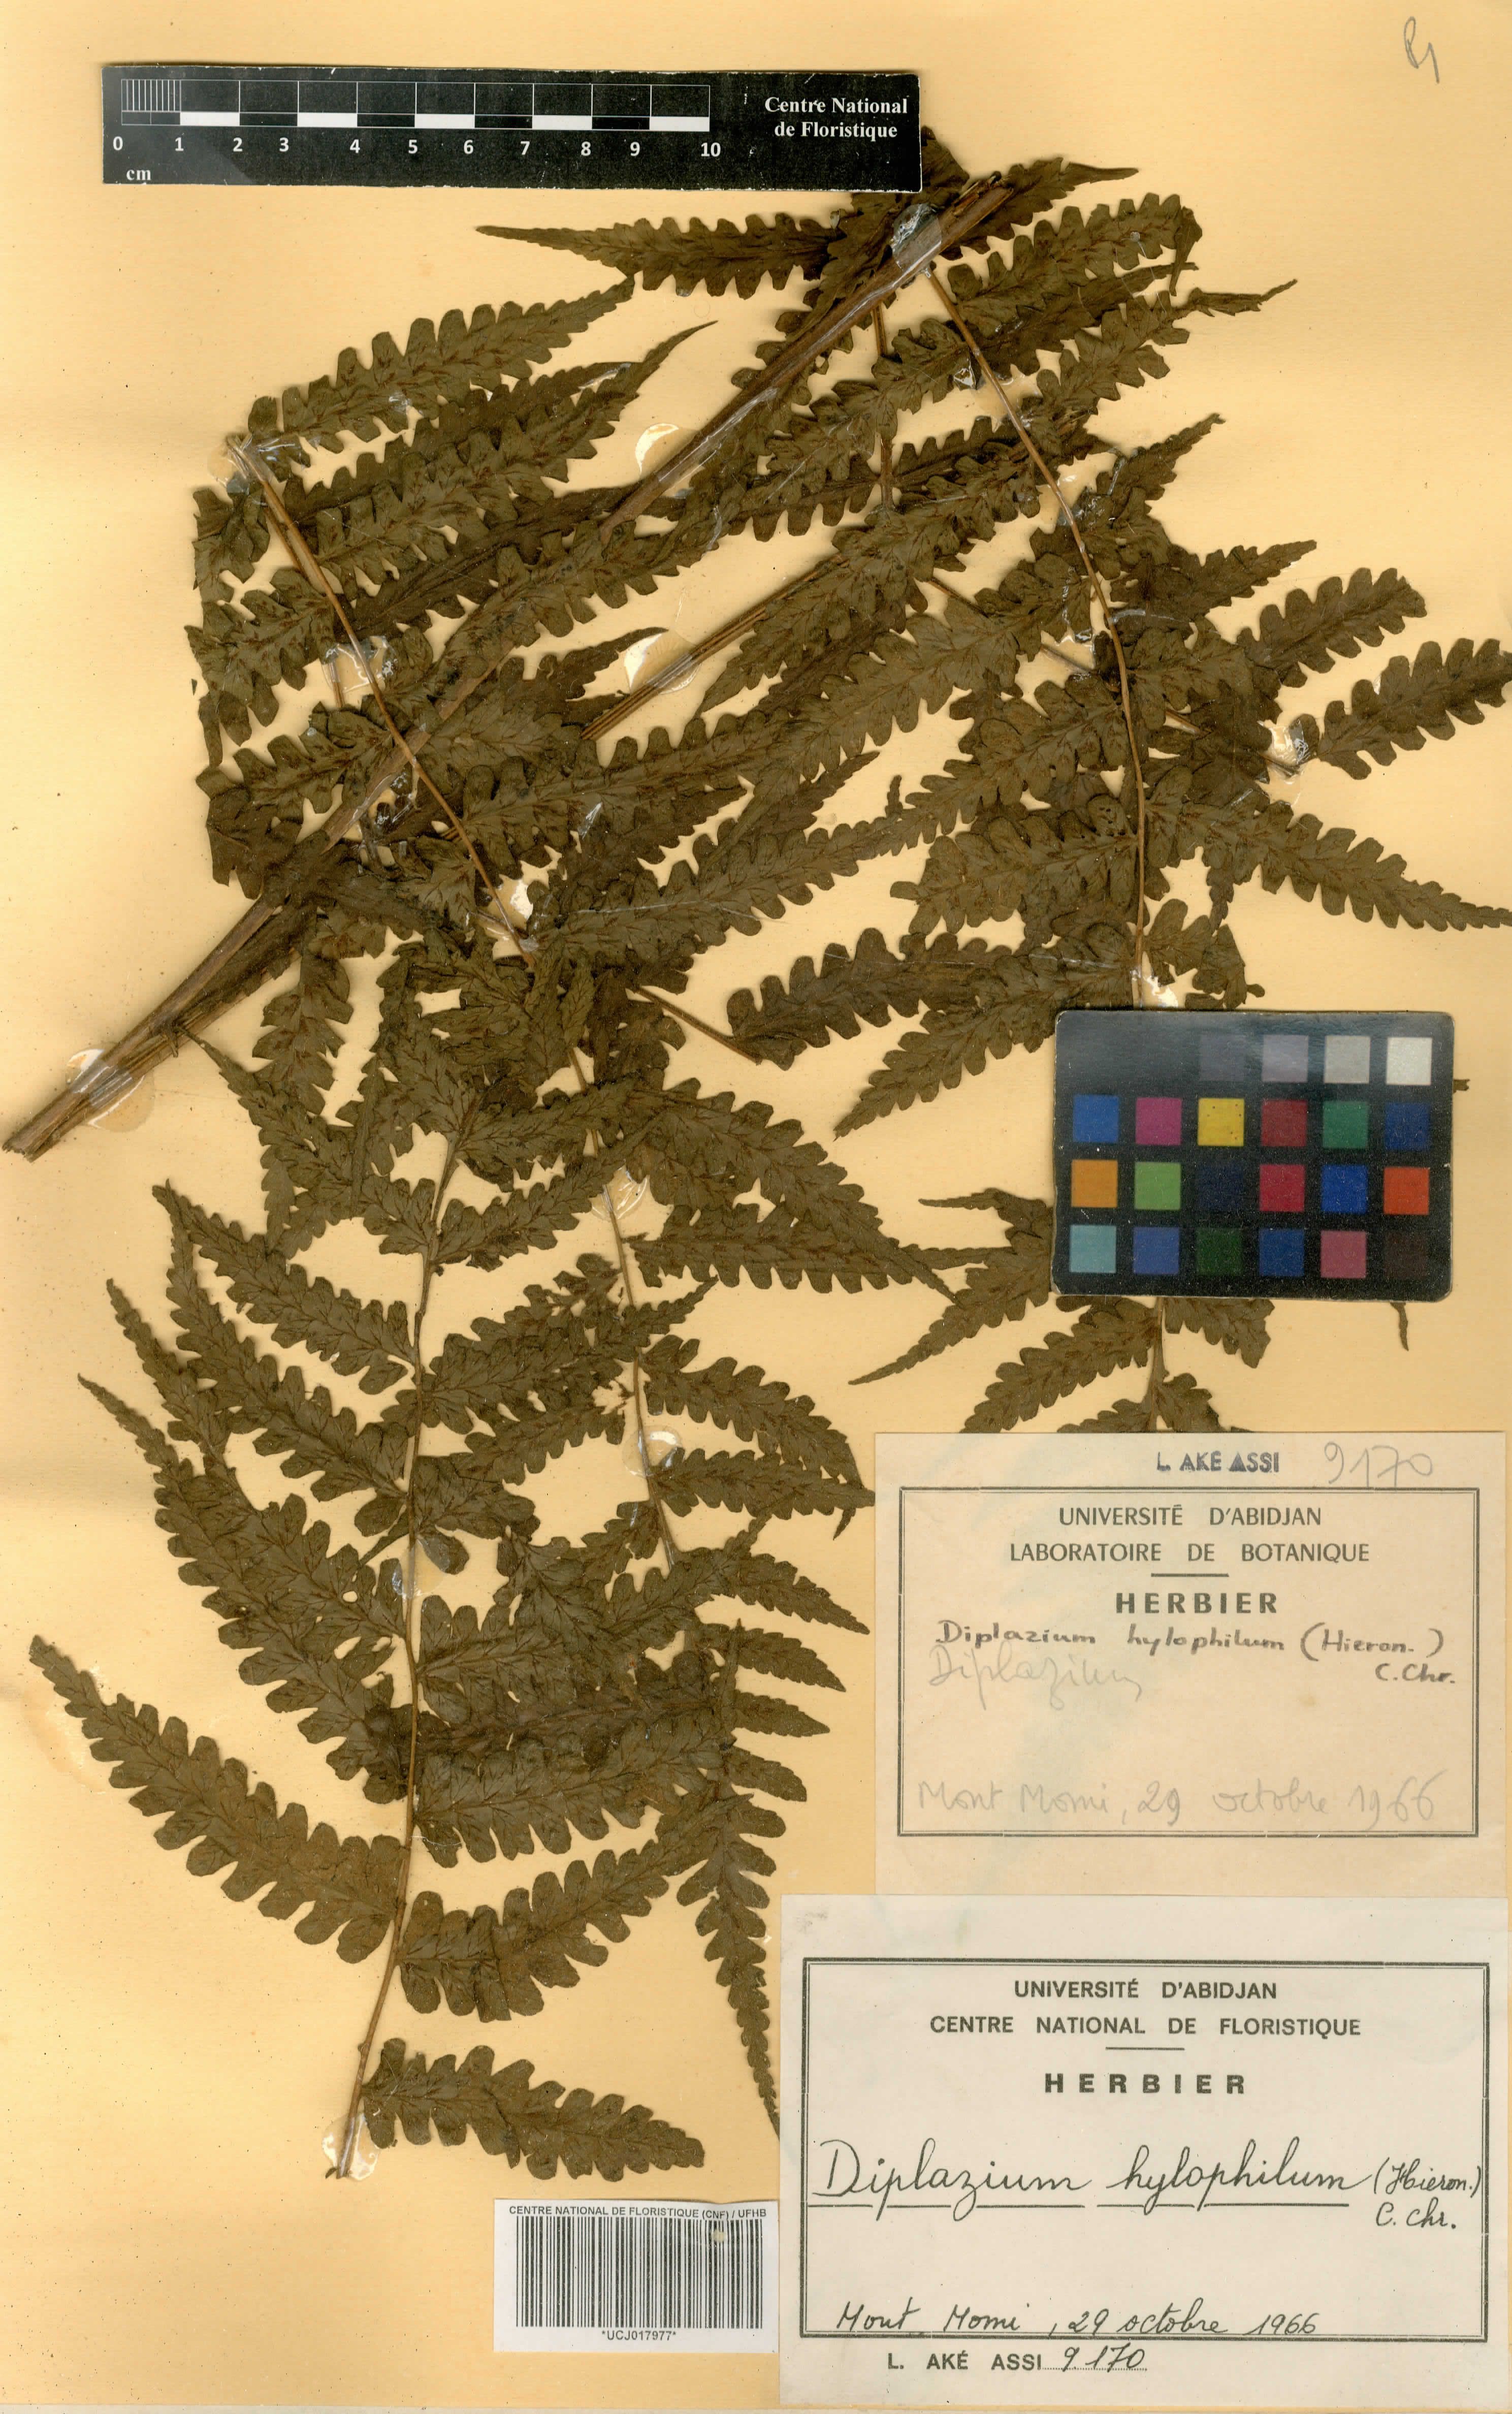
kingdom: Plantae
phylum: Tracheophyta
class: Polypodiopsida
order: Polypodiales
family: Athyriaceae
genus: Diplazium
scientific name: Diplazium nemorale
